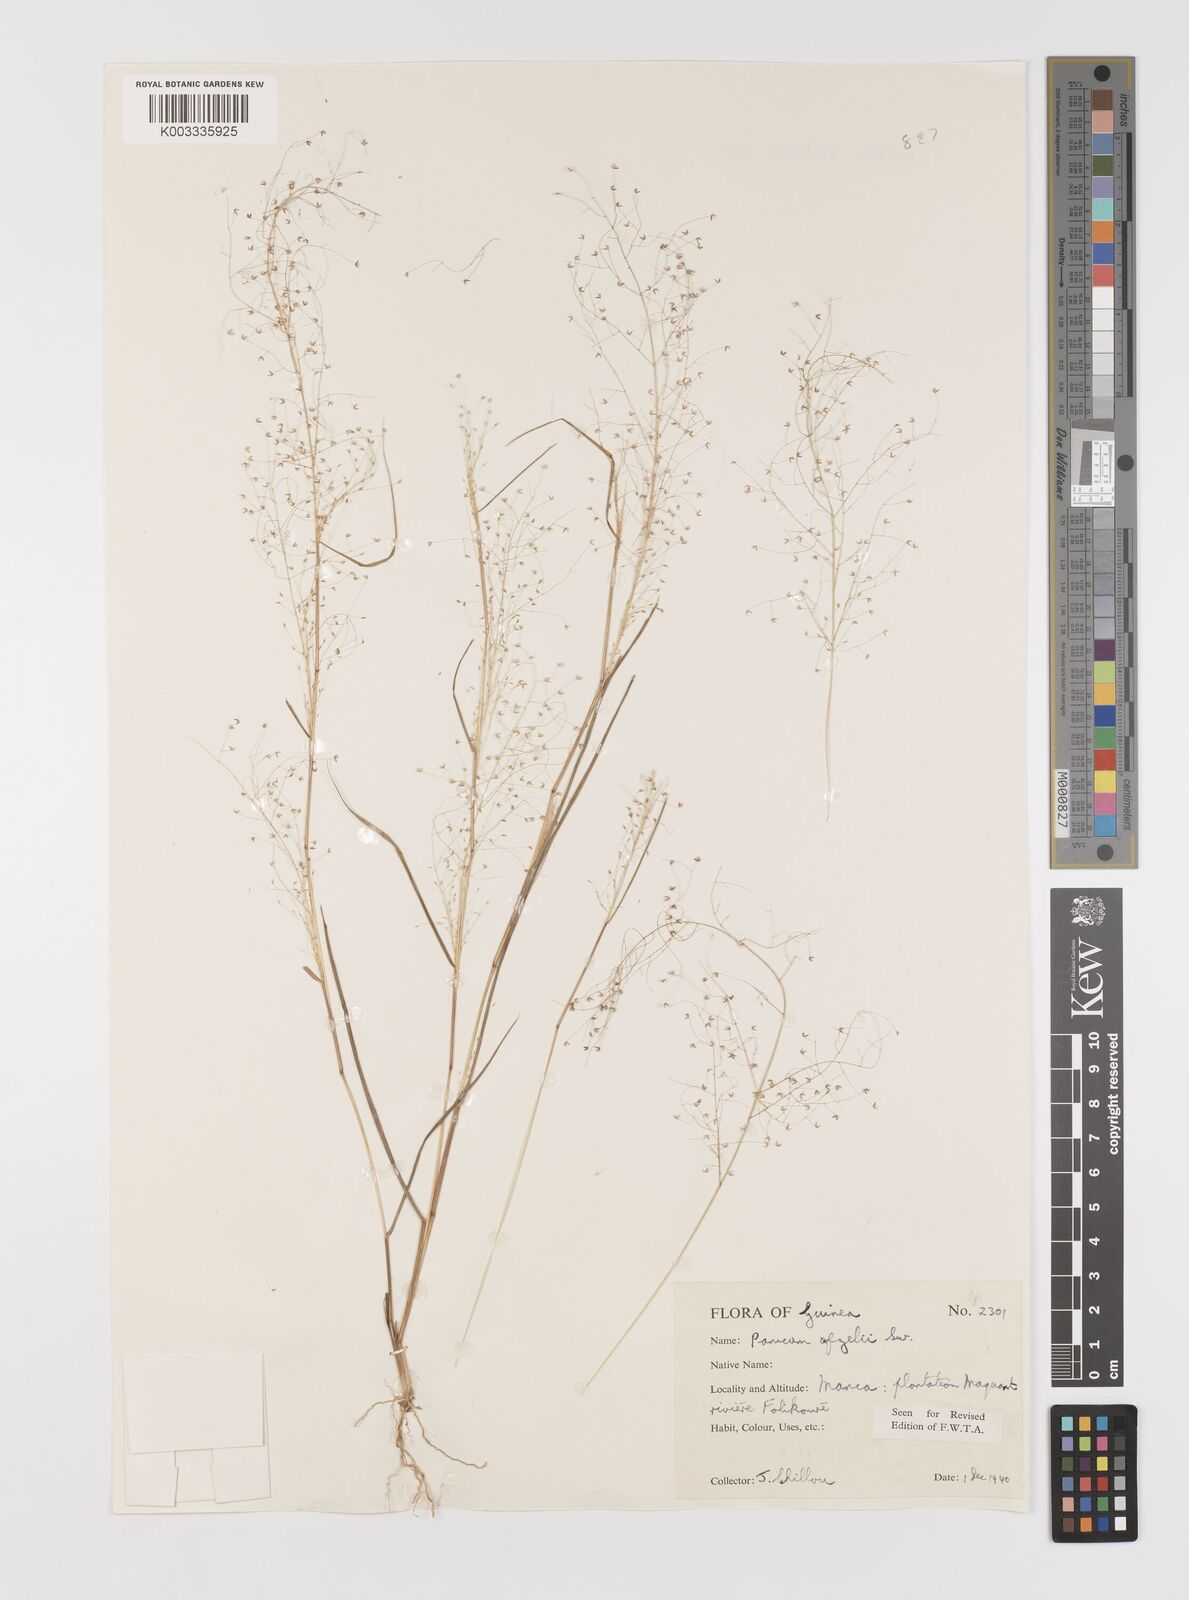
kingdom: Plantae
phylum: Tracheophyta
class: Liliopsida
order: Poales
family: Poaceae
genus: Panicum
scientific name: Panicum afzelii
